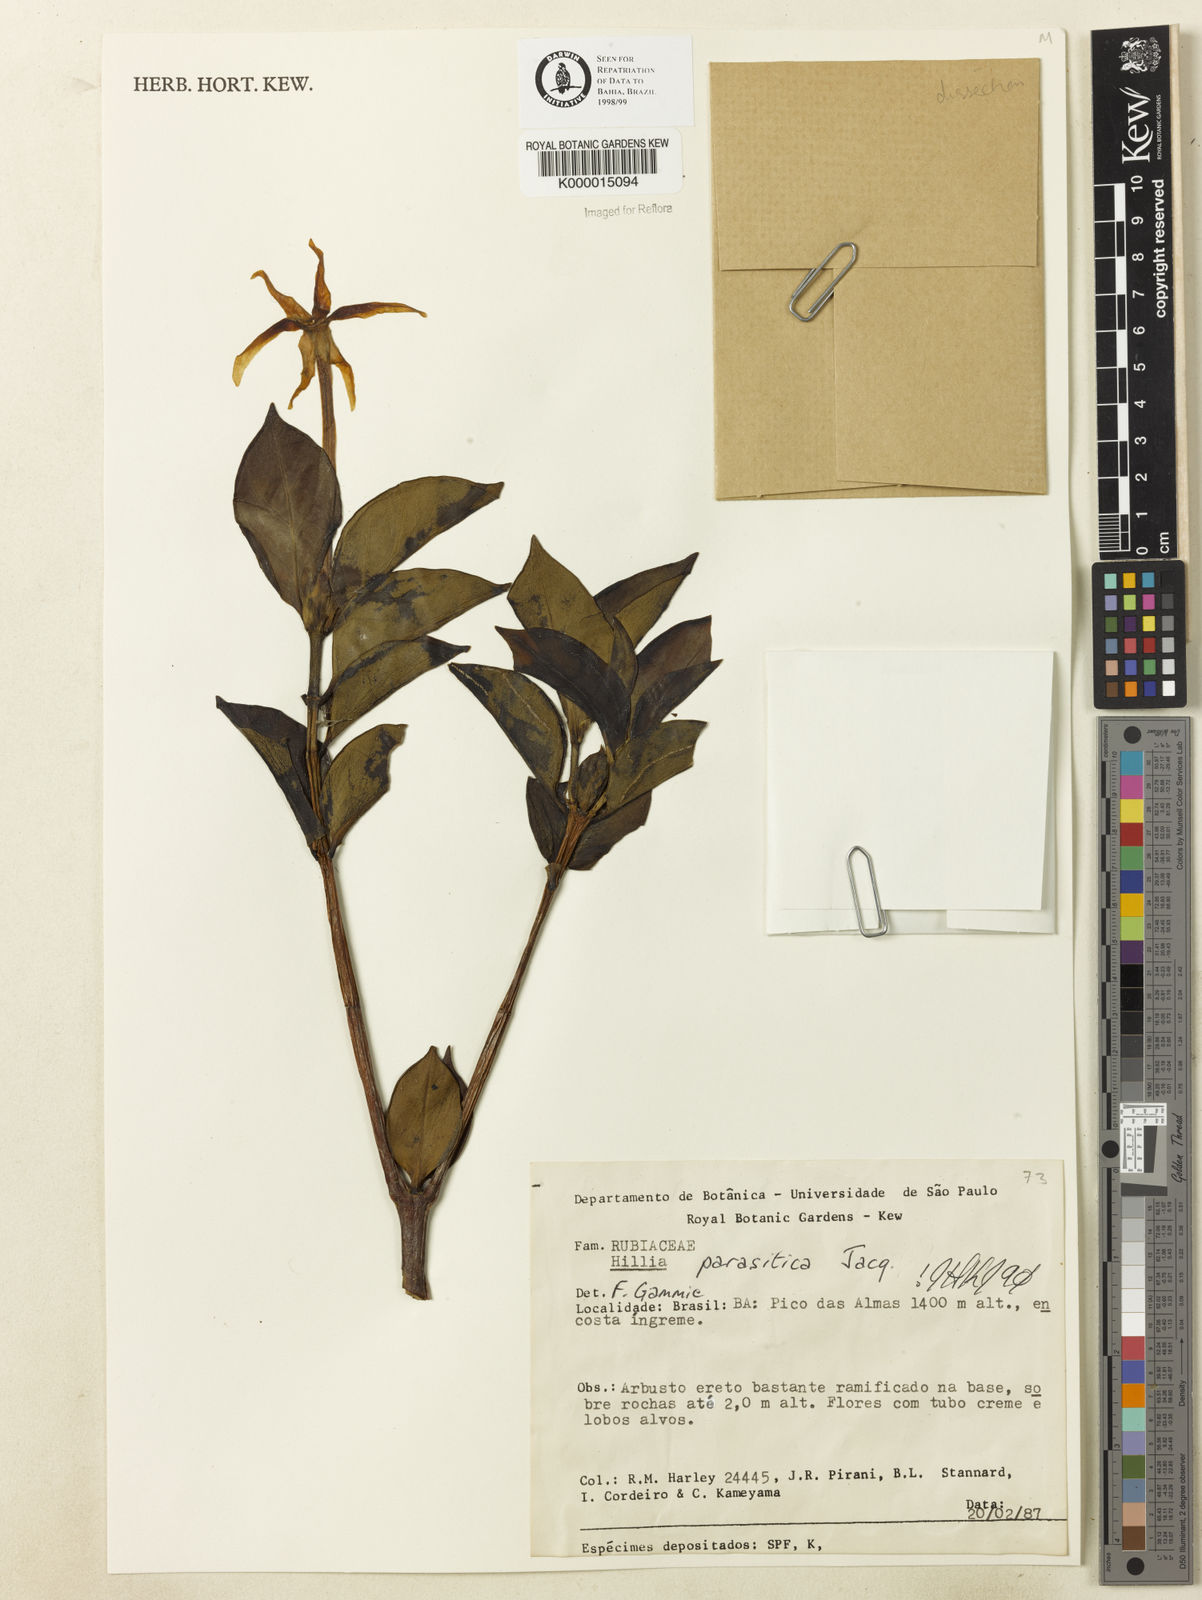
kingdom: Plantae
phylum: Tracheophyta
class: Magnoliopsida
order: Gentianales
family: Rubiaceae
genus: Hillia
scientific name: Hillia parasitica
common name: Morning star
